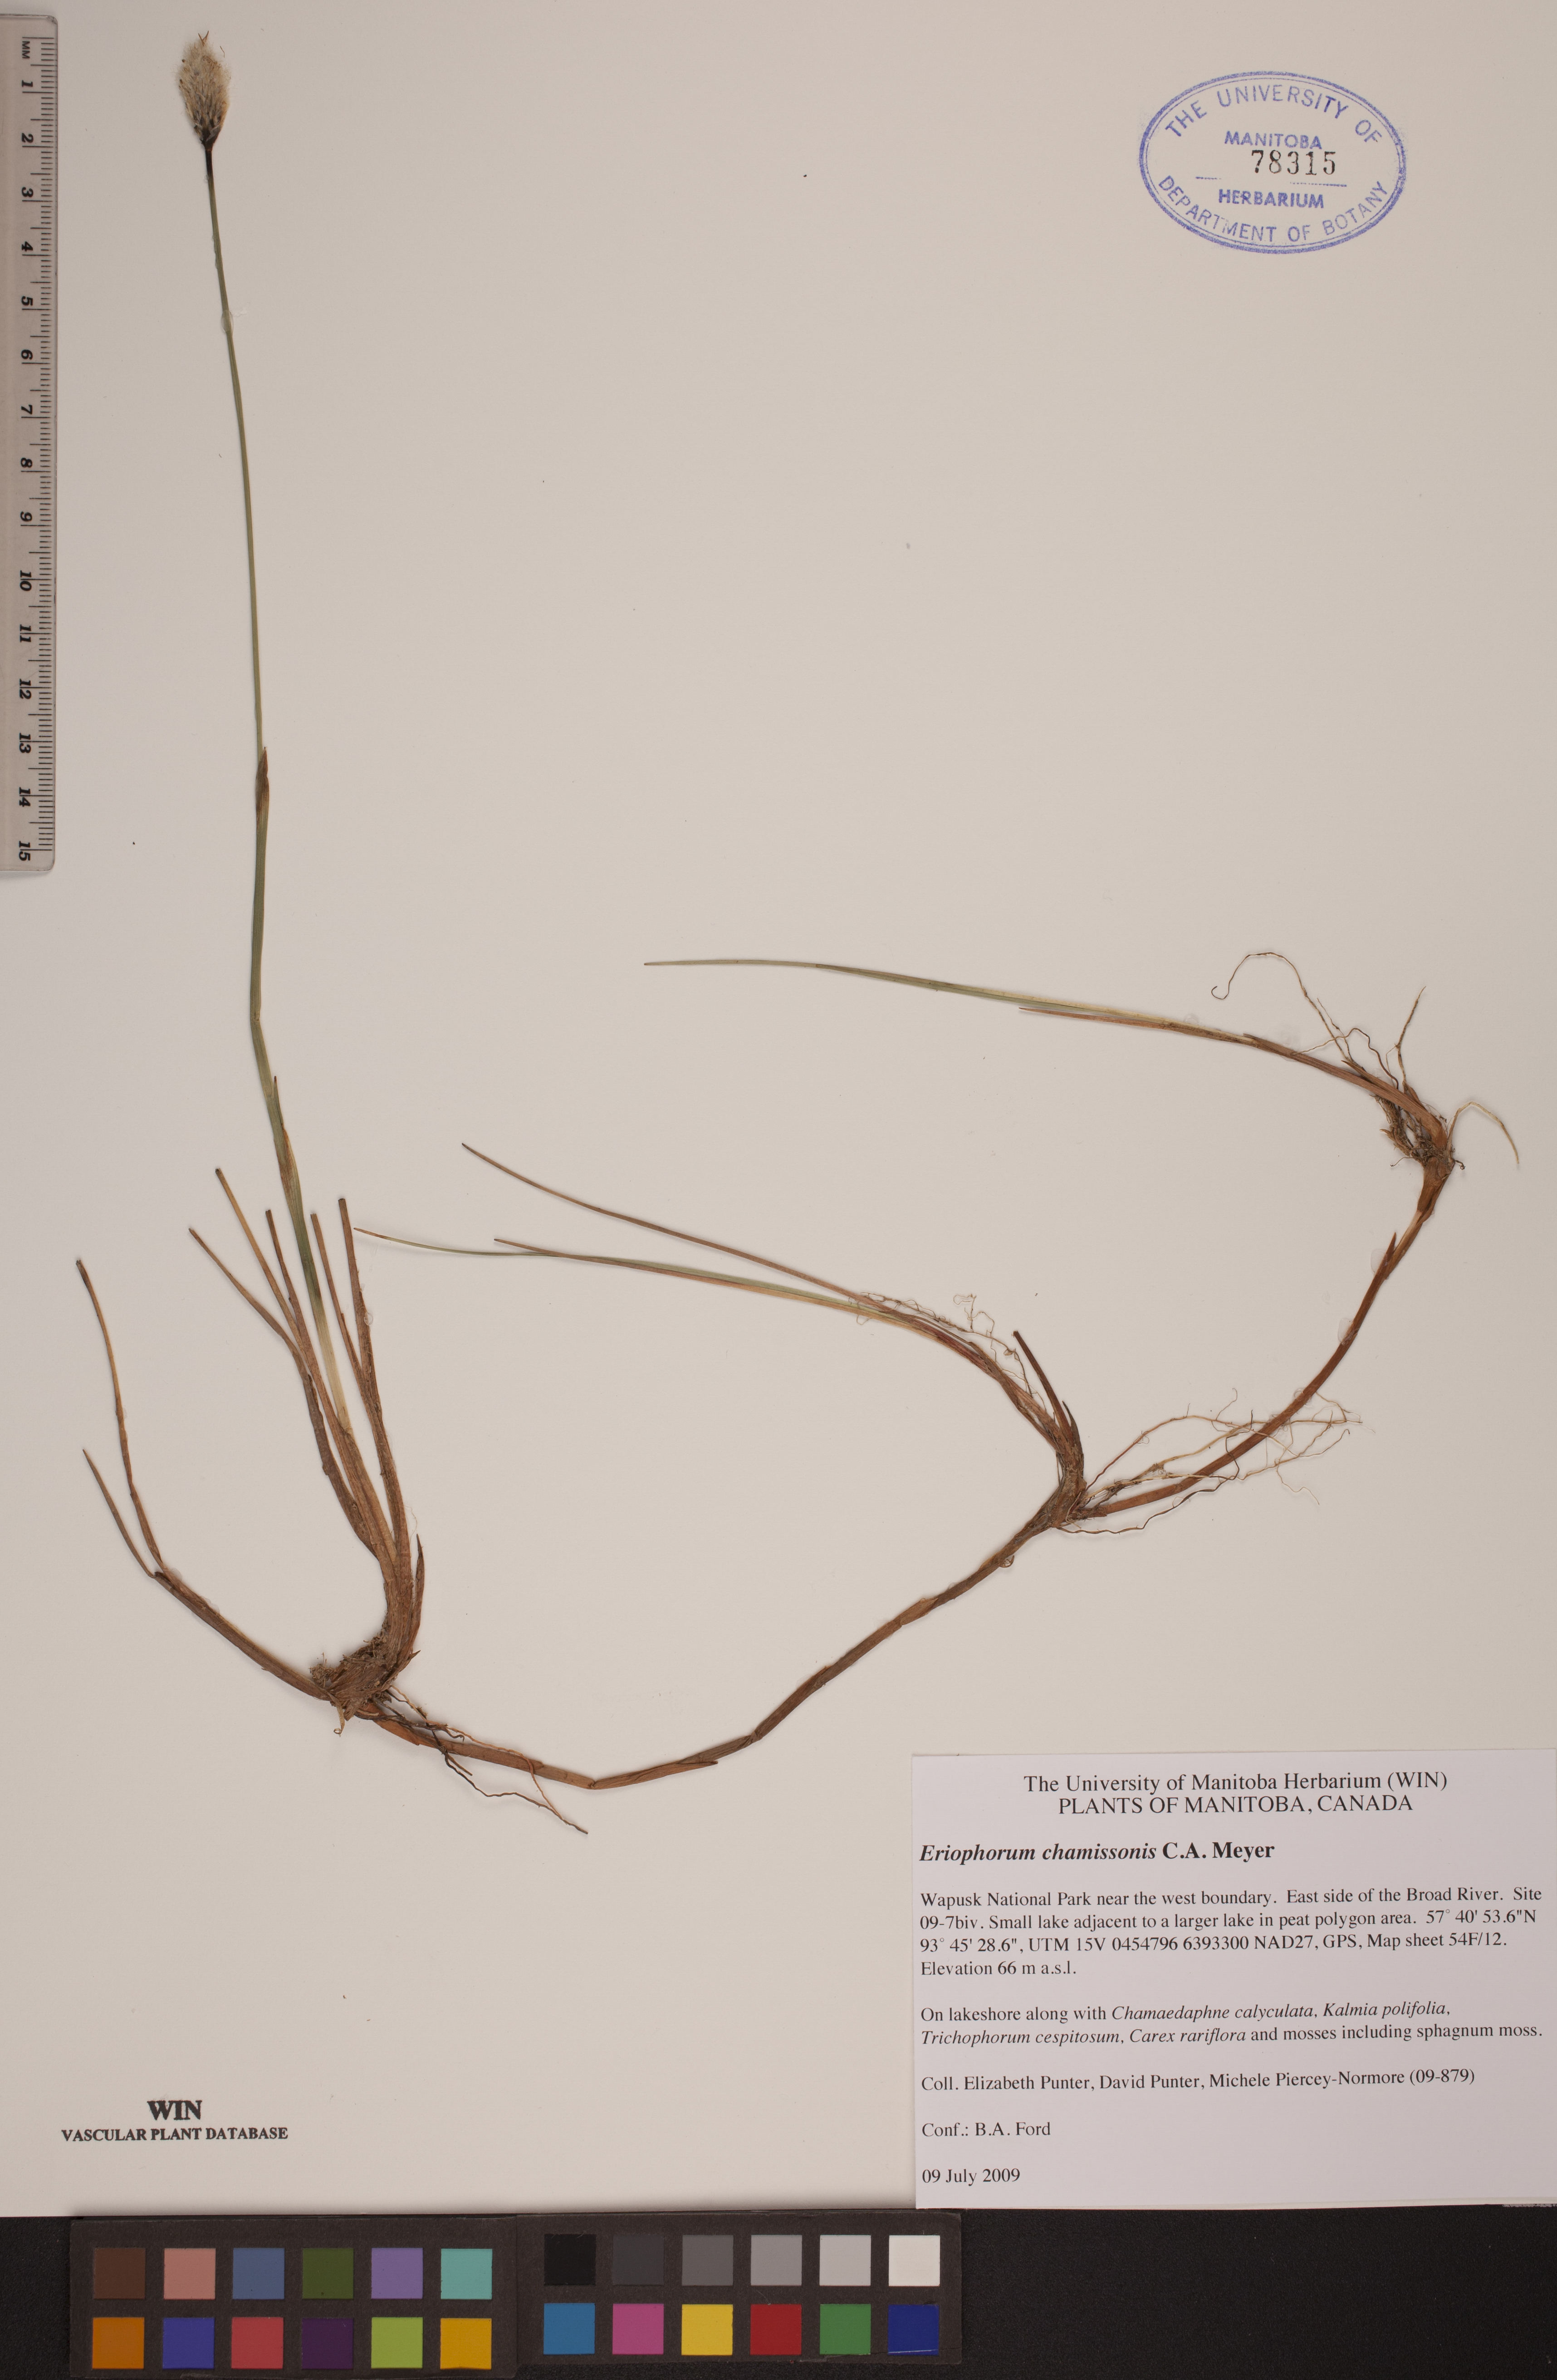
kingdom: Plantae
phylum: Tracheophyta
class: Liliopsida
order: Poales
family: Cyperaceae
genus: Eriophorum
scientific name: Eriophorum chamissonis
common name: Chamisso's cottongrass
